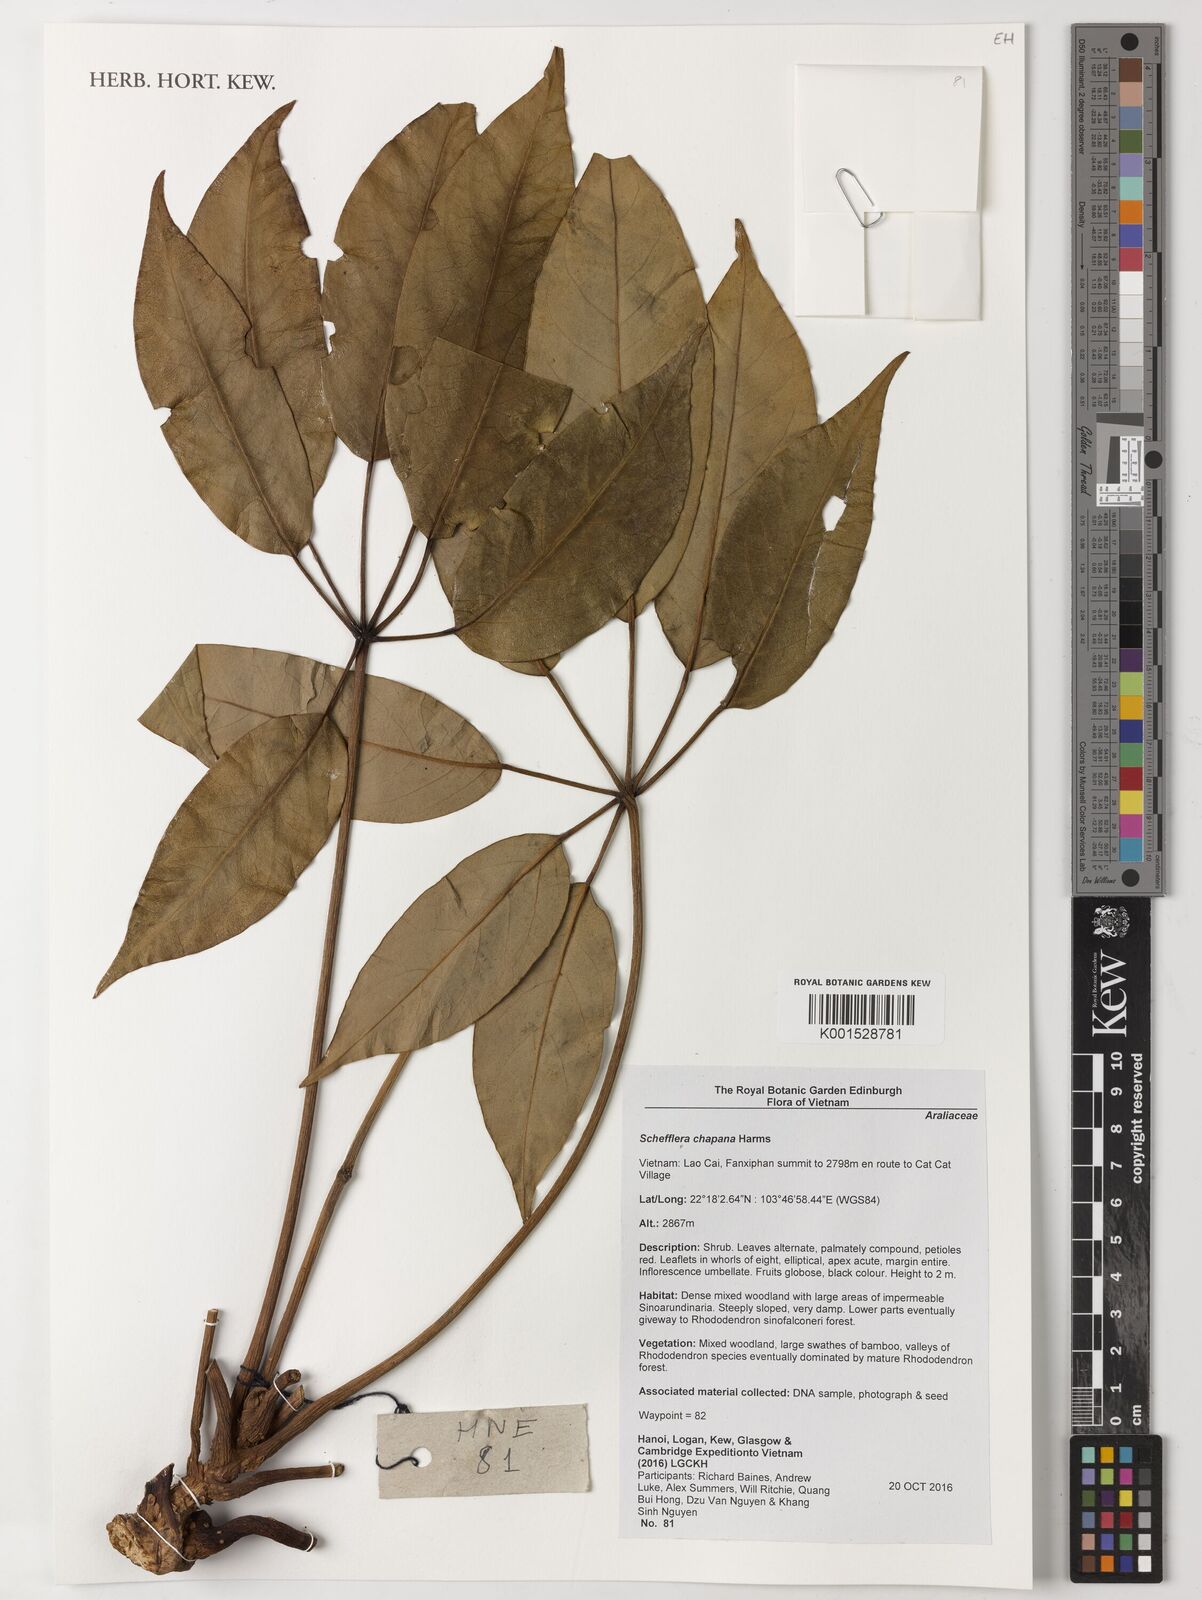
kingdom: Plantae
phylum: Tracheophyta
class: Magnoliopsida
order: Apiales
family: Araliaceae
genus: Heptapleurum
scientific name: Heptapleurum chapanum
